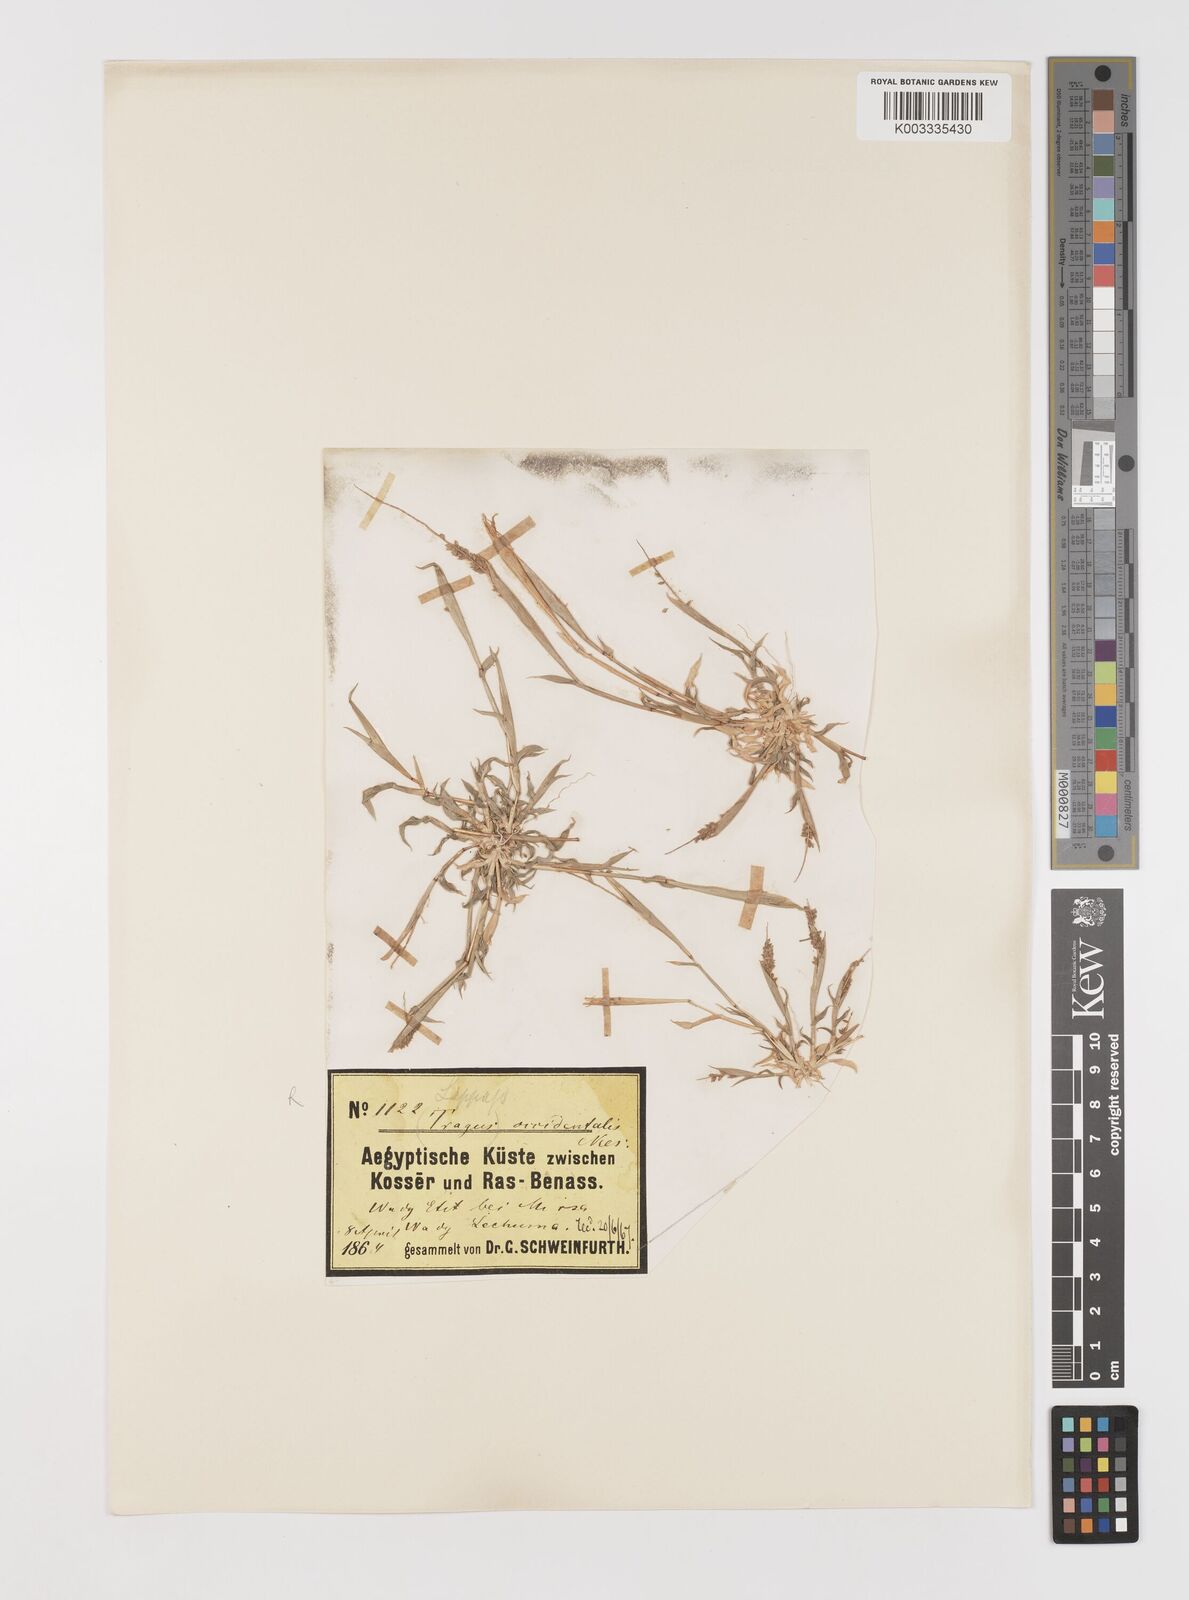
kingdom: Plantae
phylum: Tracheophyta
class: Liliopsida
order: Poales
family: Poaceae
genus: Tragus
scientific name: Tragus berteronianus
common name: African bur-grass
